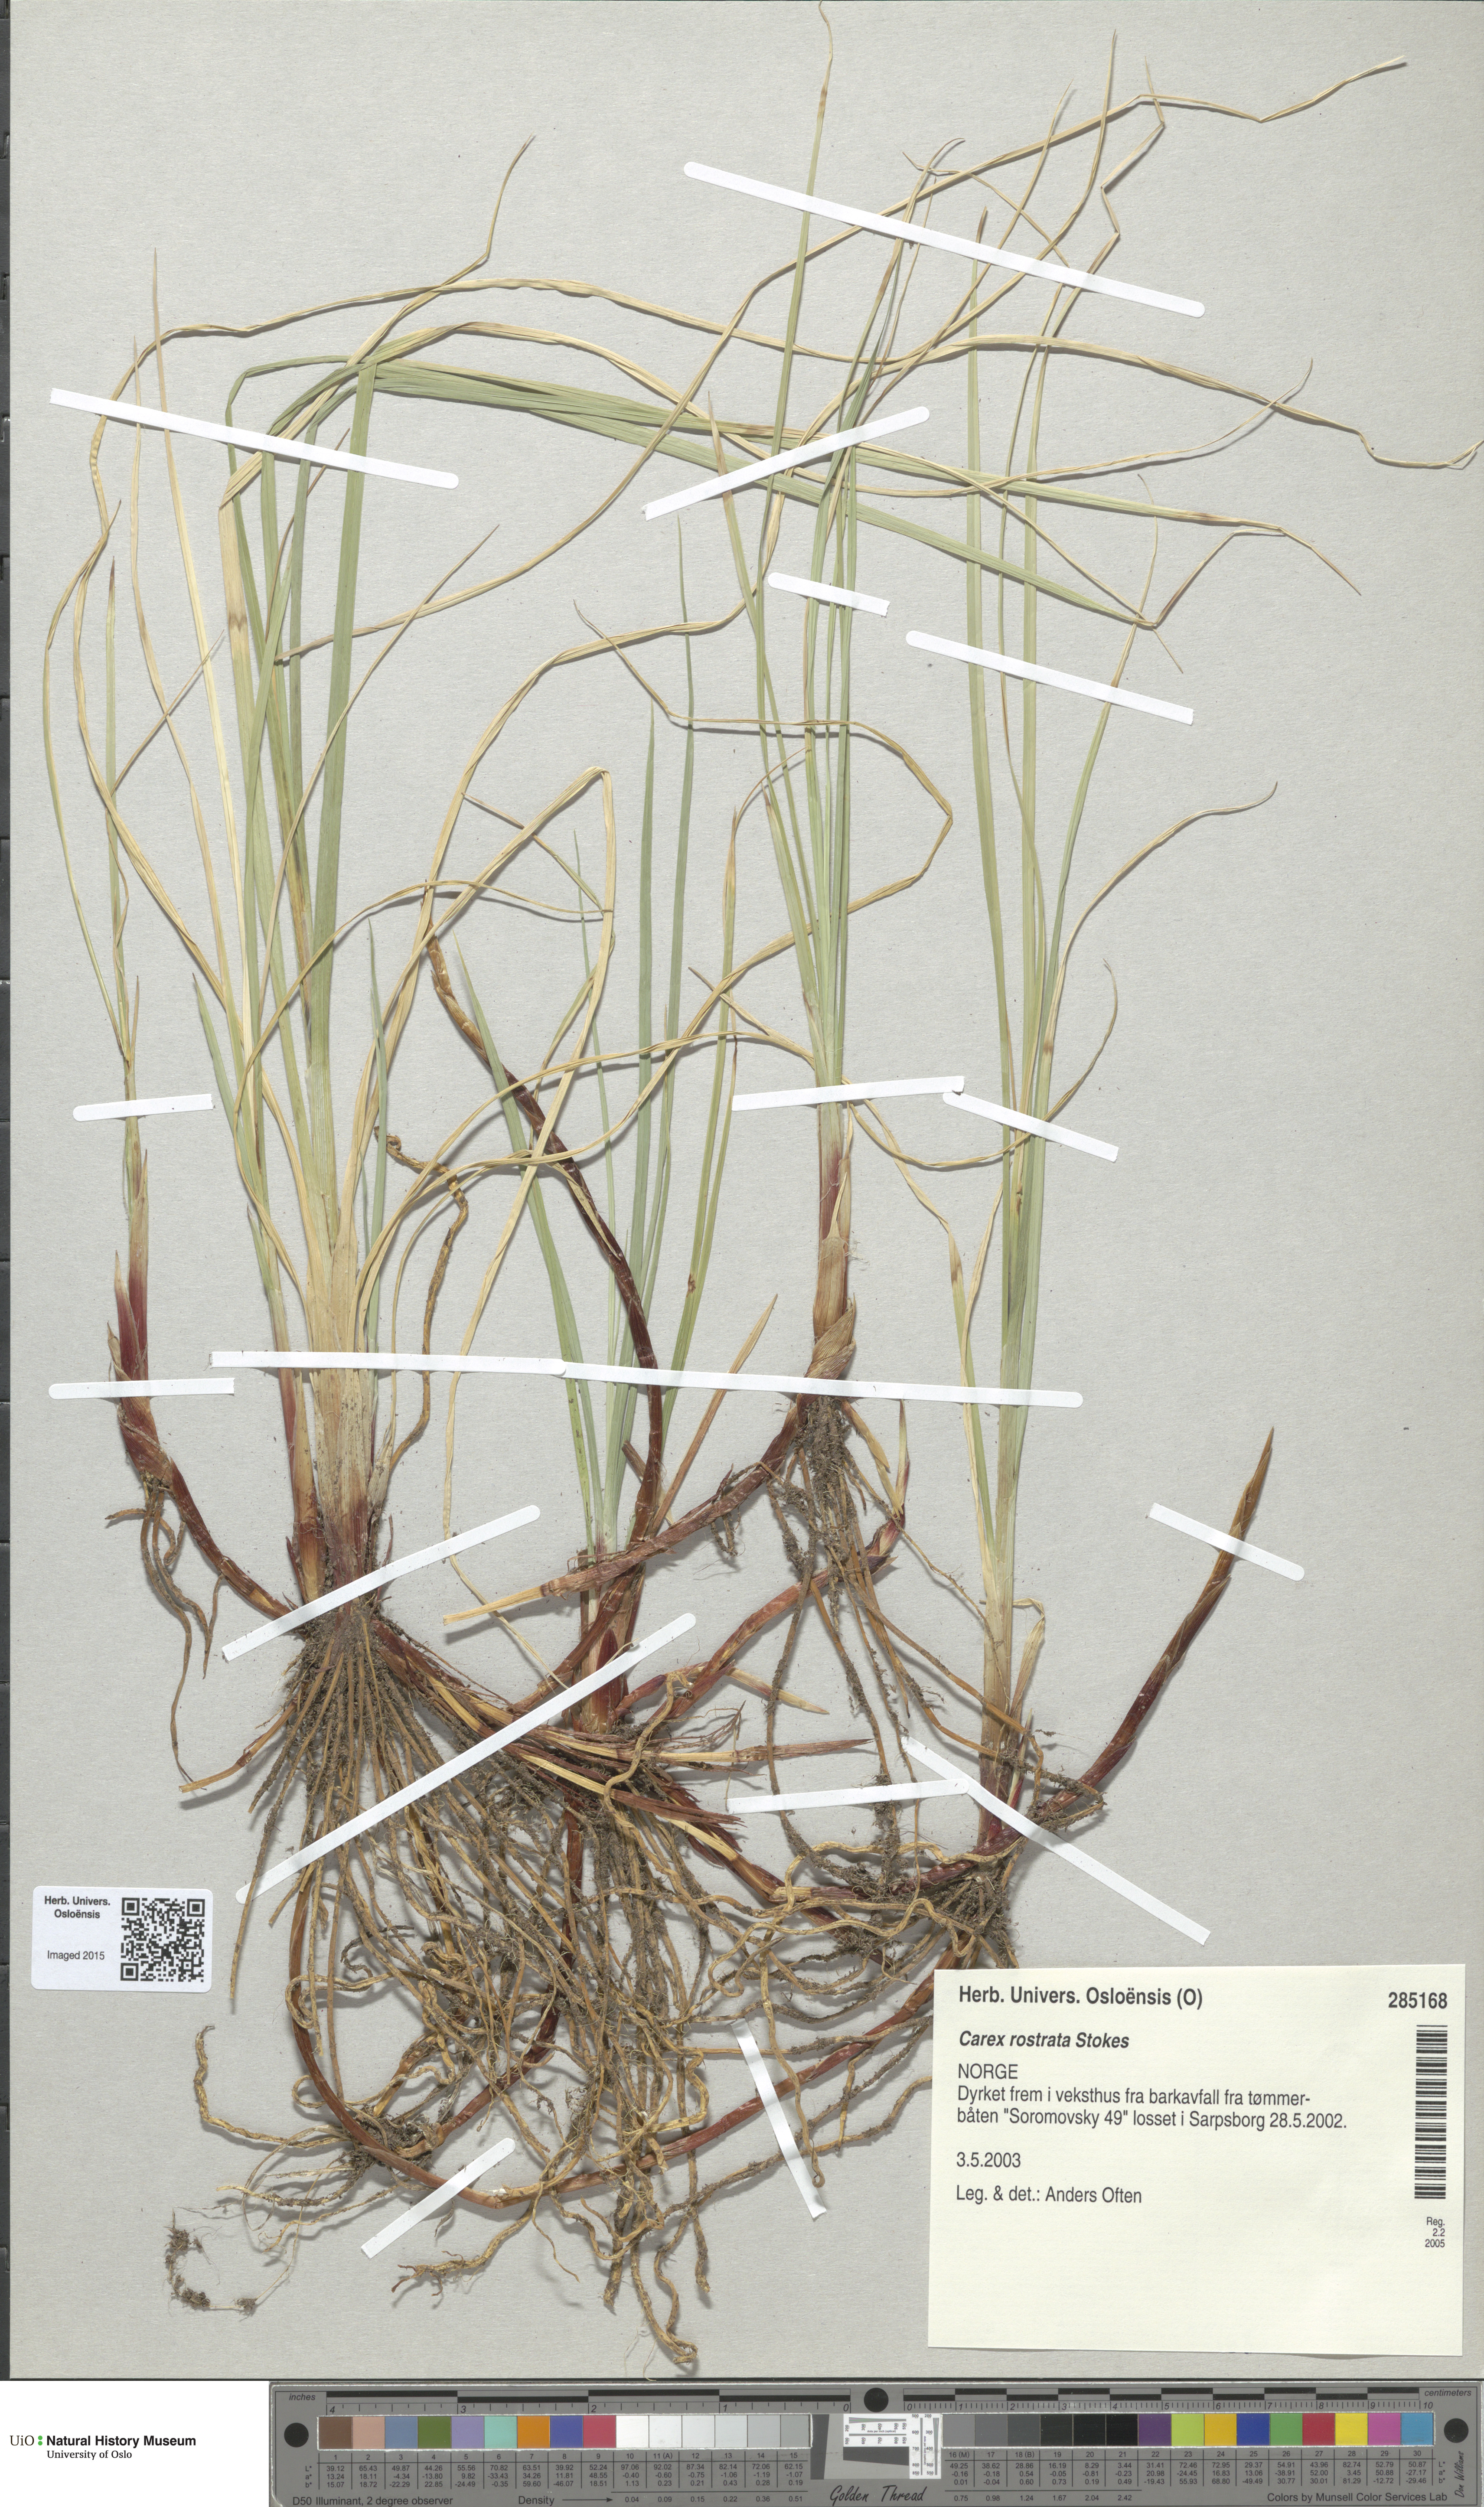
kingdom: Plantae
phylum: Tracheophyta
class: Liliopsida
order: Poales
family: Cyperaceae
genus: Carex
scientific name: Carex rostrata
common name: Bottle sedge
